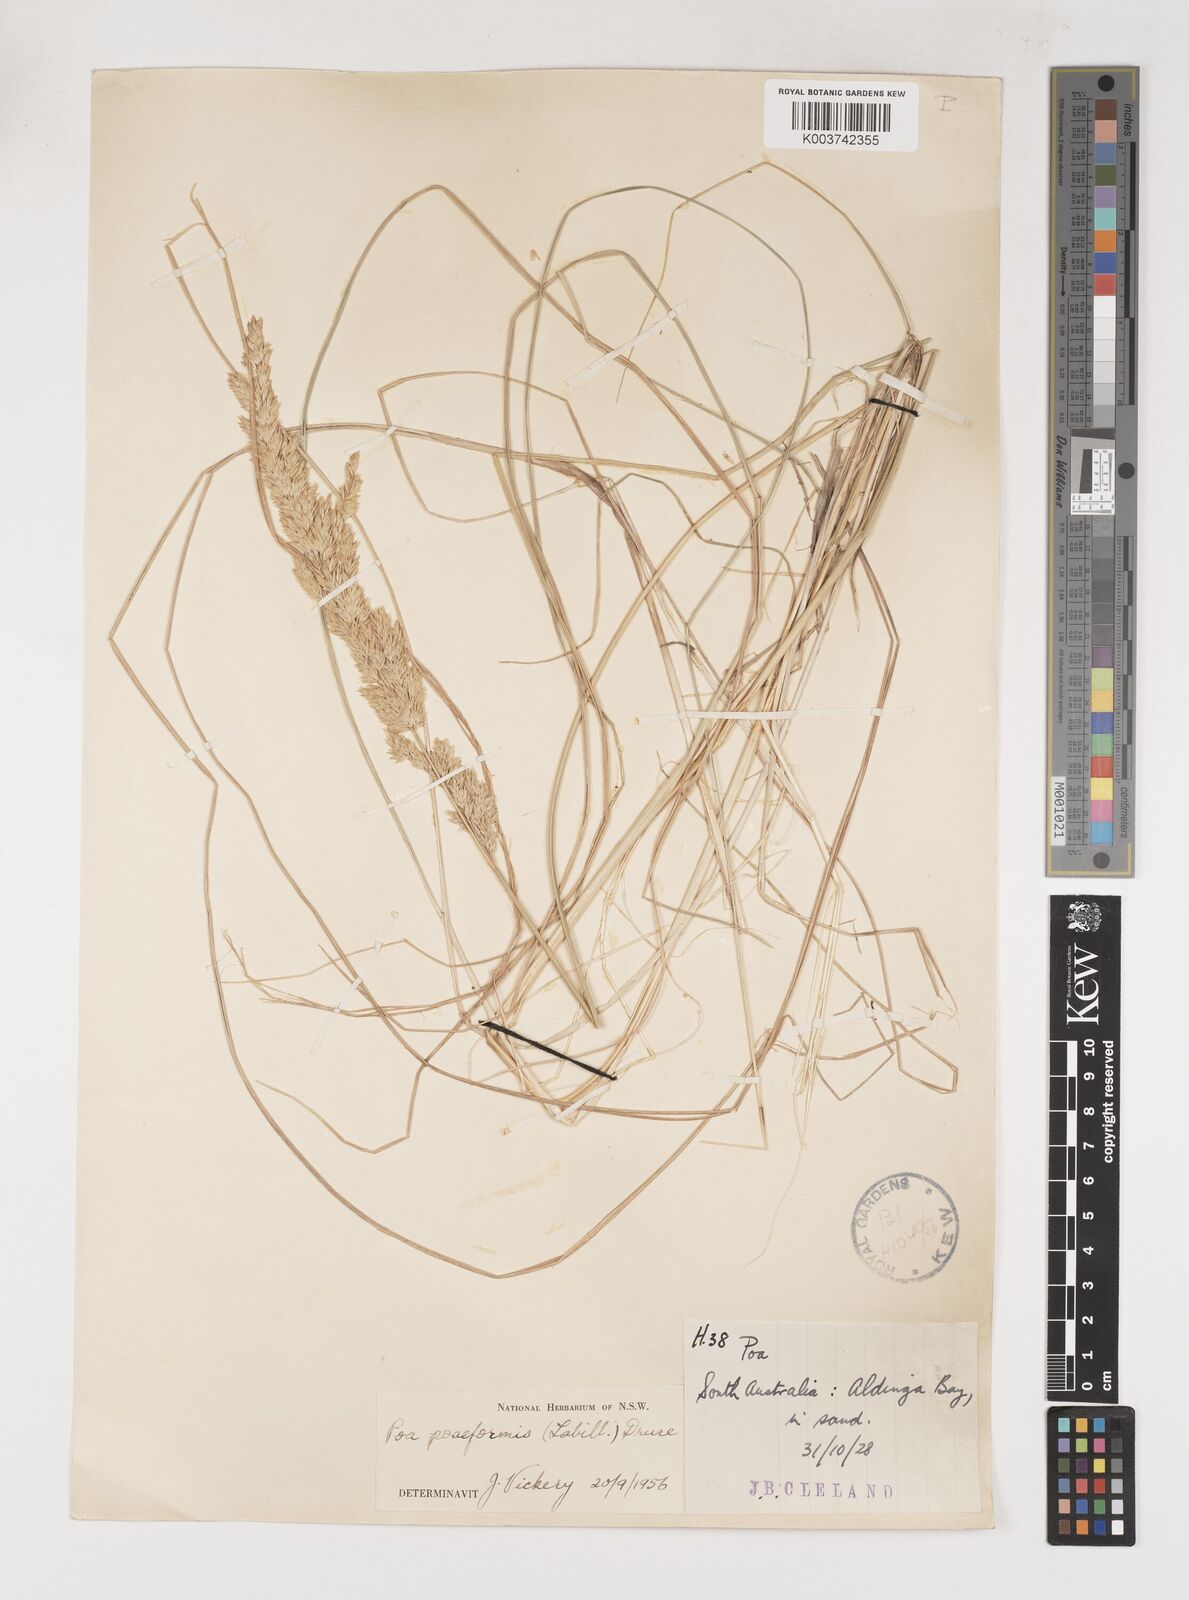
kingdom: Plantae
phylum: Tracheophyta
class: Liliopsida
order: Poales
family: Poaceae
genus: Poa
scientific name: Poa poiformis
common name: Tussock poa
